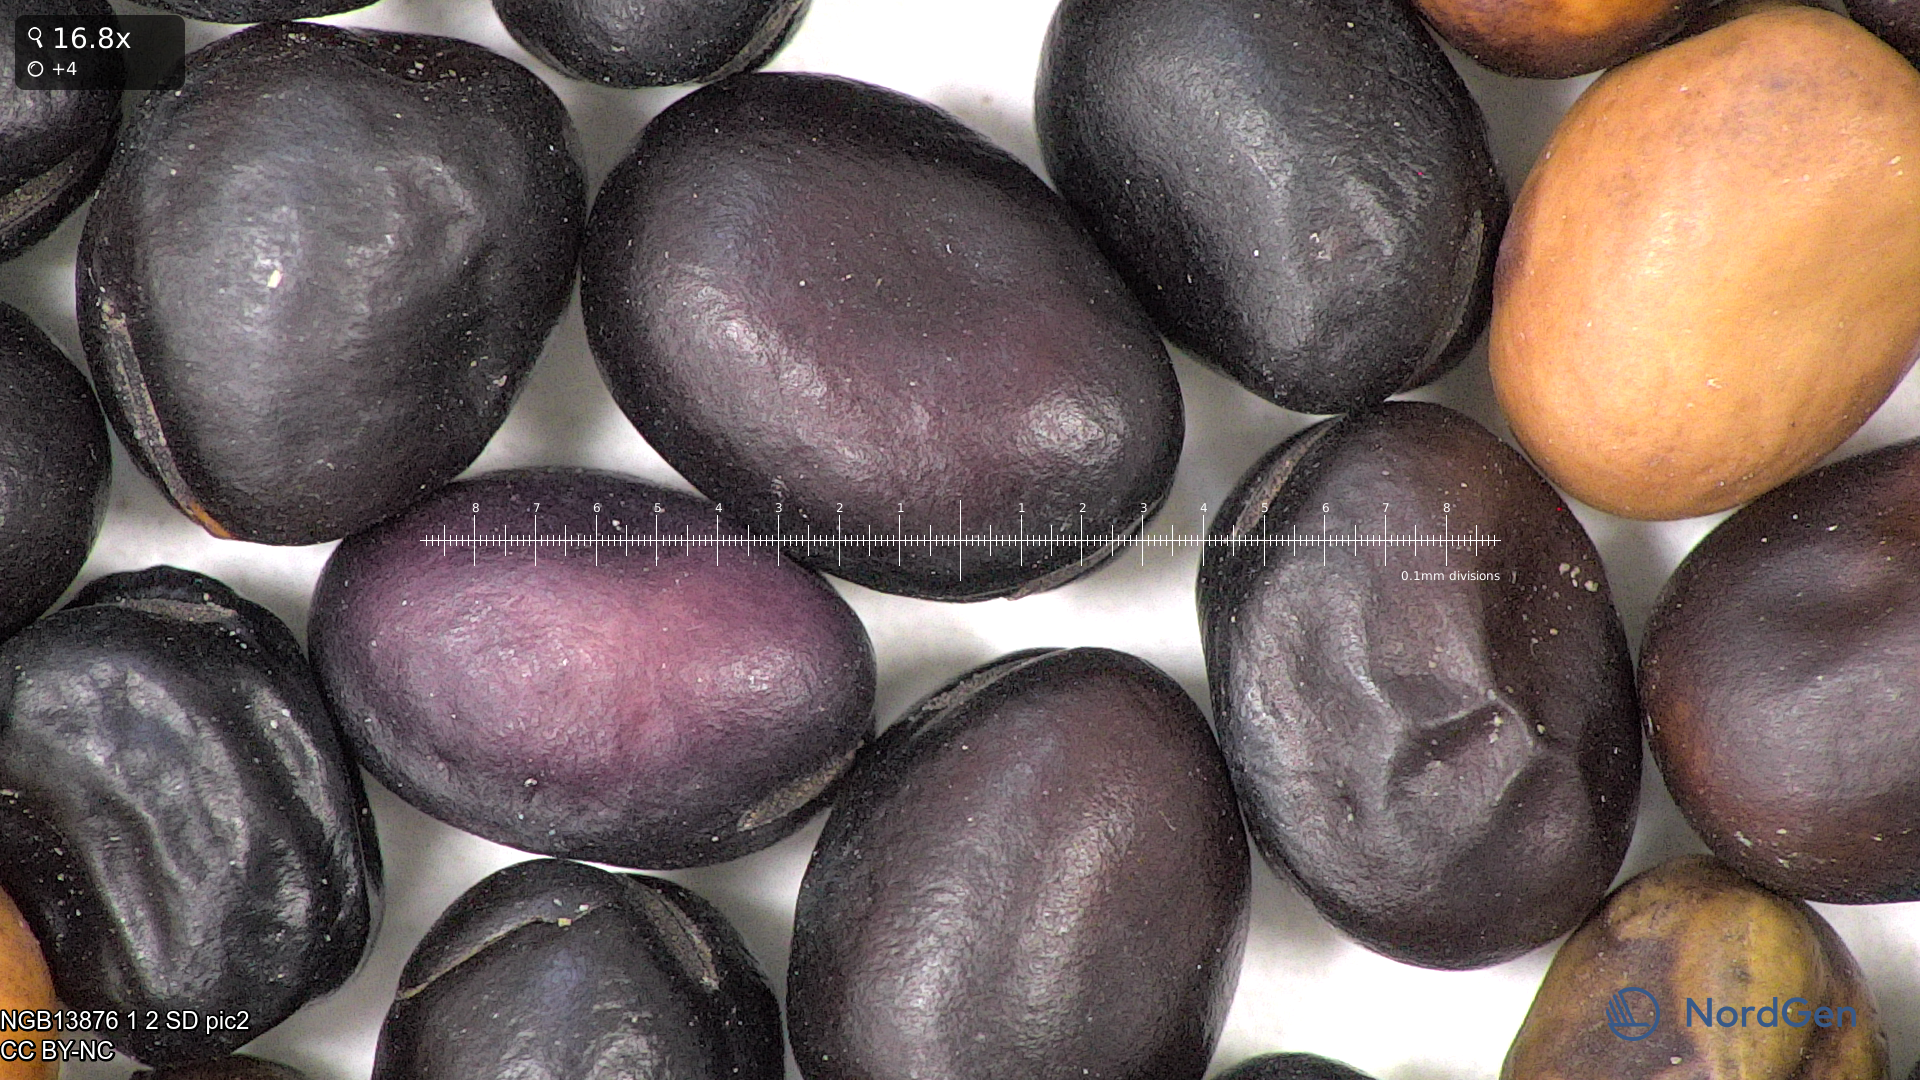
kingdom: Plantae
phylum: Tracheophyta
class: Magnoliopsida
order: Fabales
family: Fabaceae
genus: Vicia
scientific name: Vicia faba
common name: Broad bean
